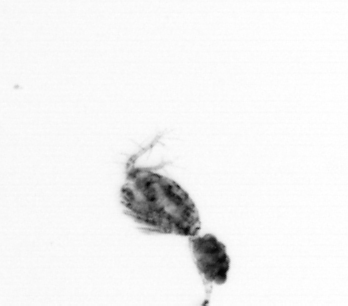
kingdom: Animalia
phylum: Arthropoda
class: Copepoda
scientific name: Copepoda
